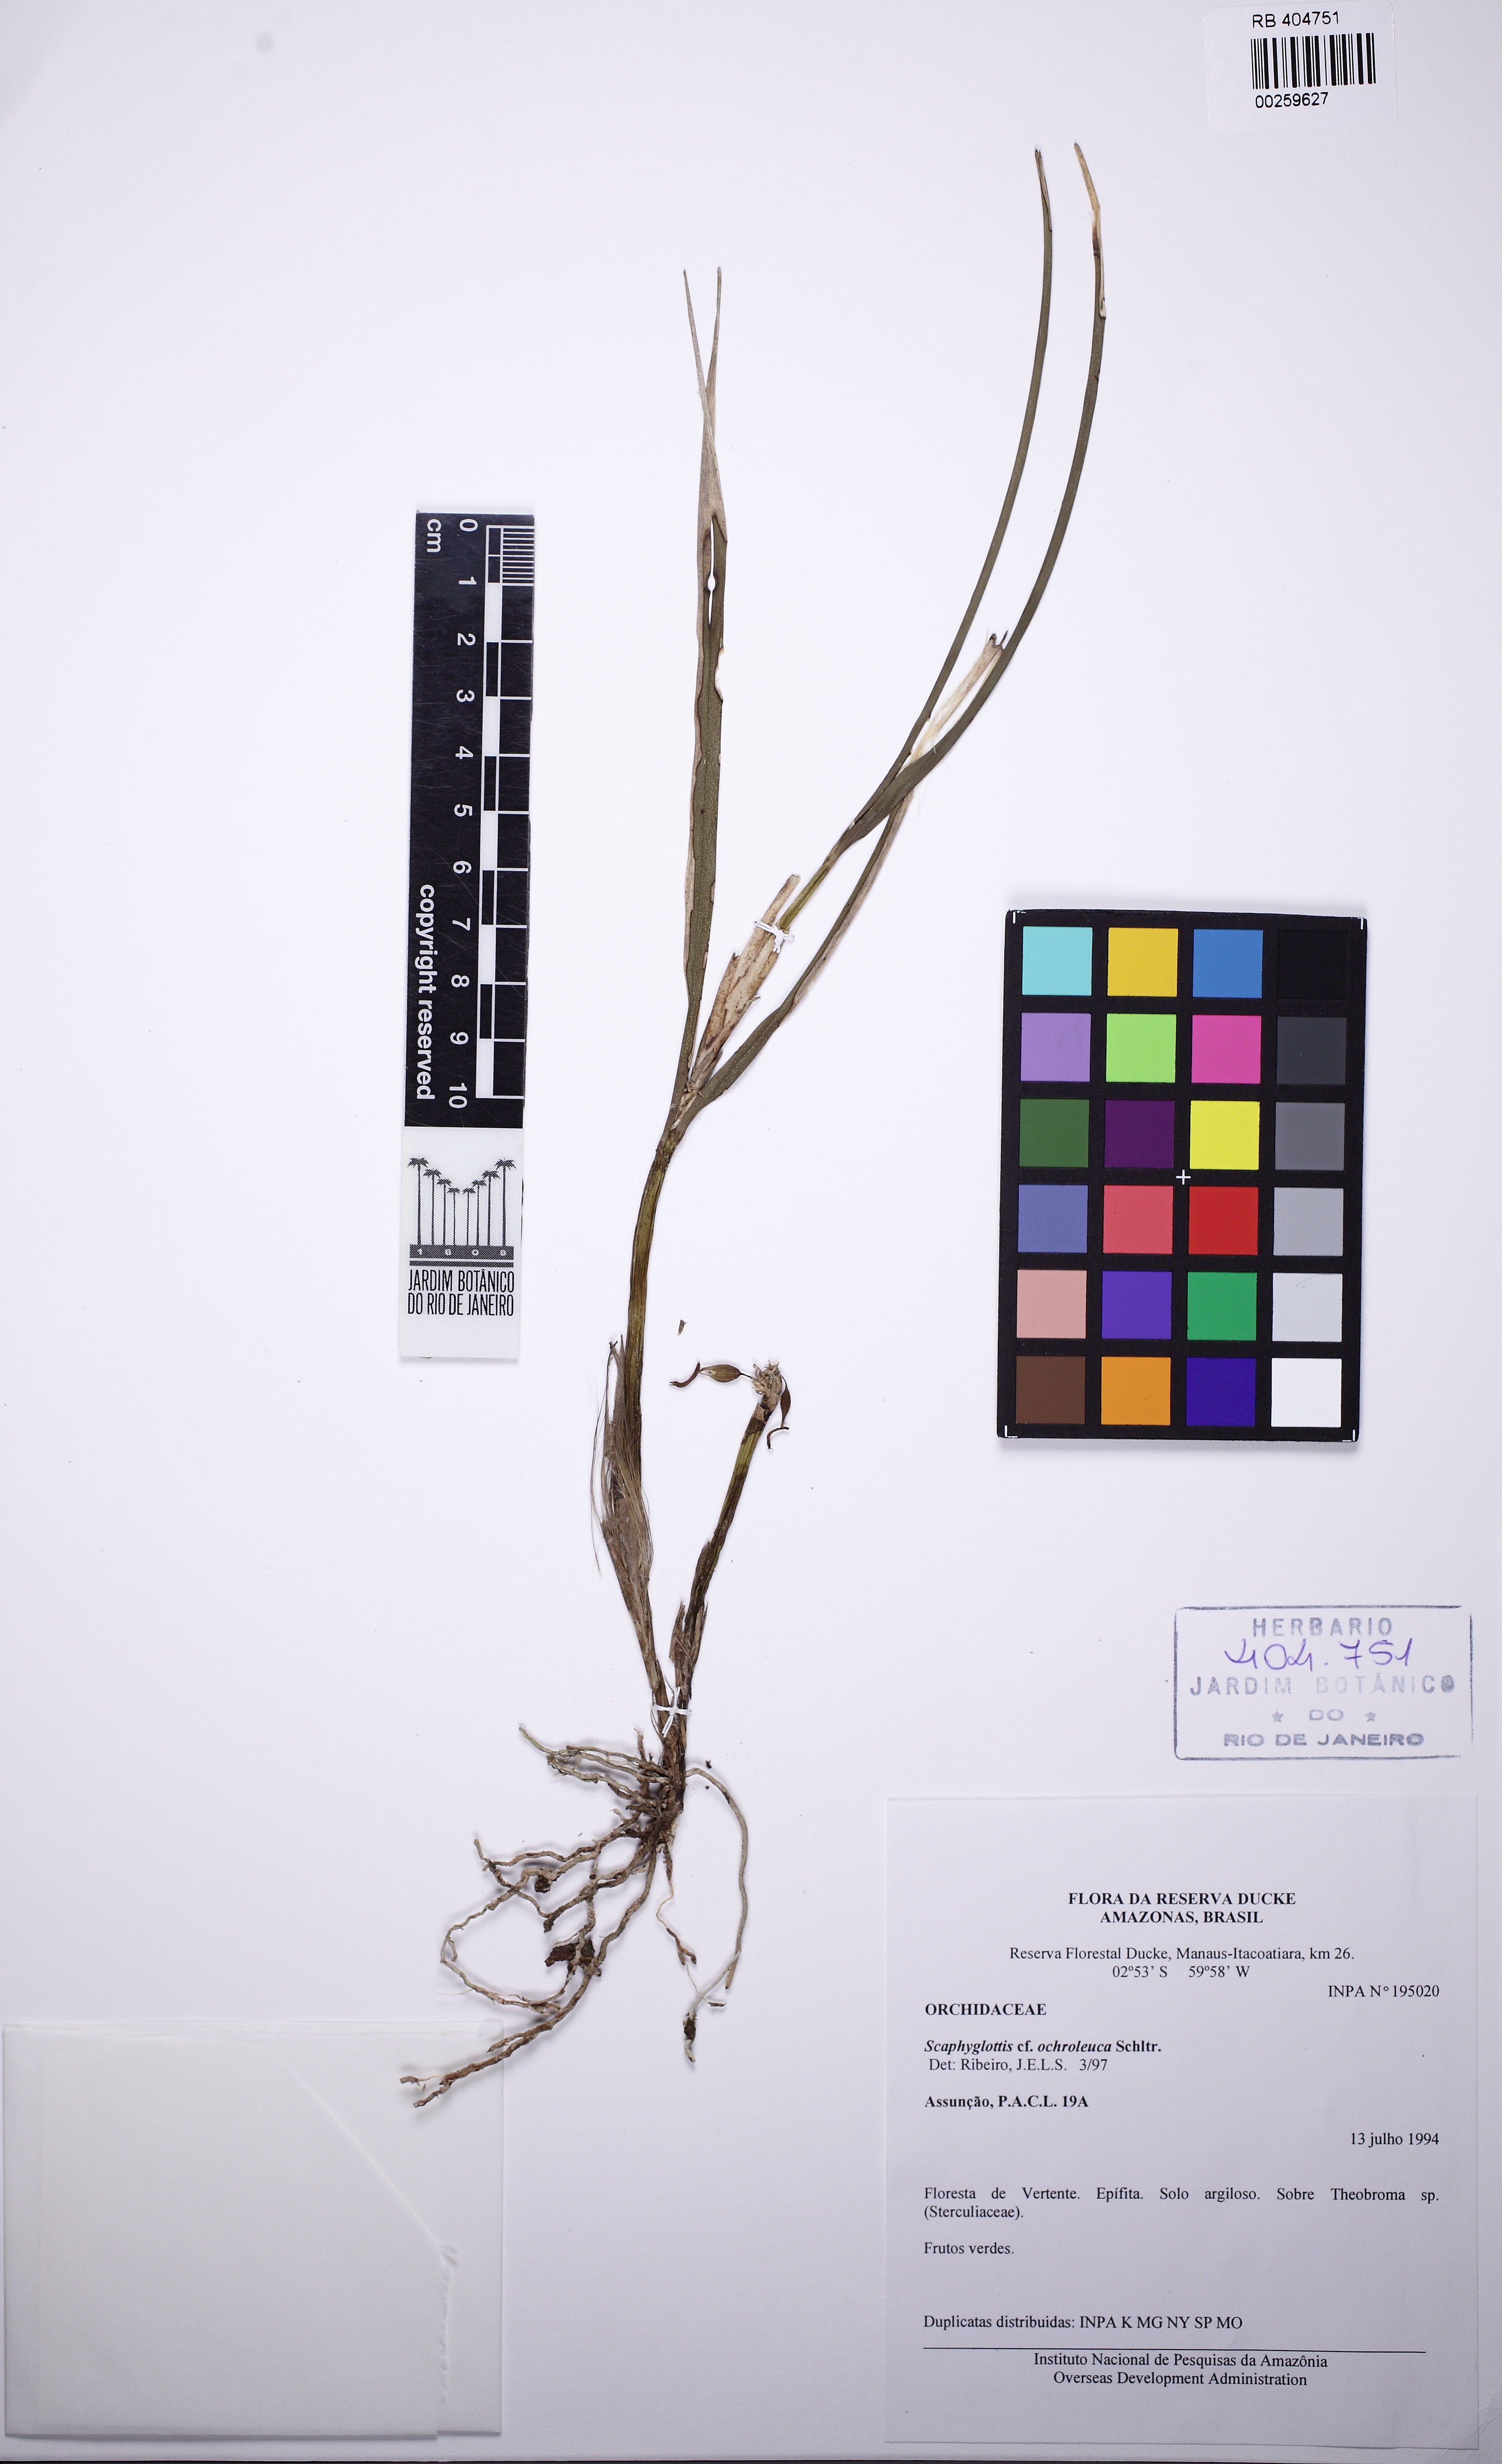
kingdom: Plantae
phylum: Tracheophyta
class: Liliopsida
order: Asparagales
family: Orchidaceae
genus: Scaphyglottis
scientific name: Scaphyglottis stellata
